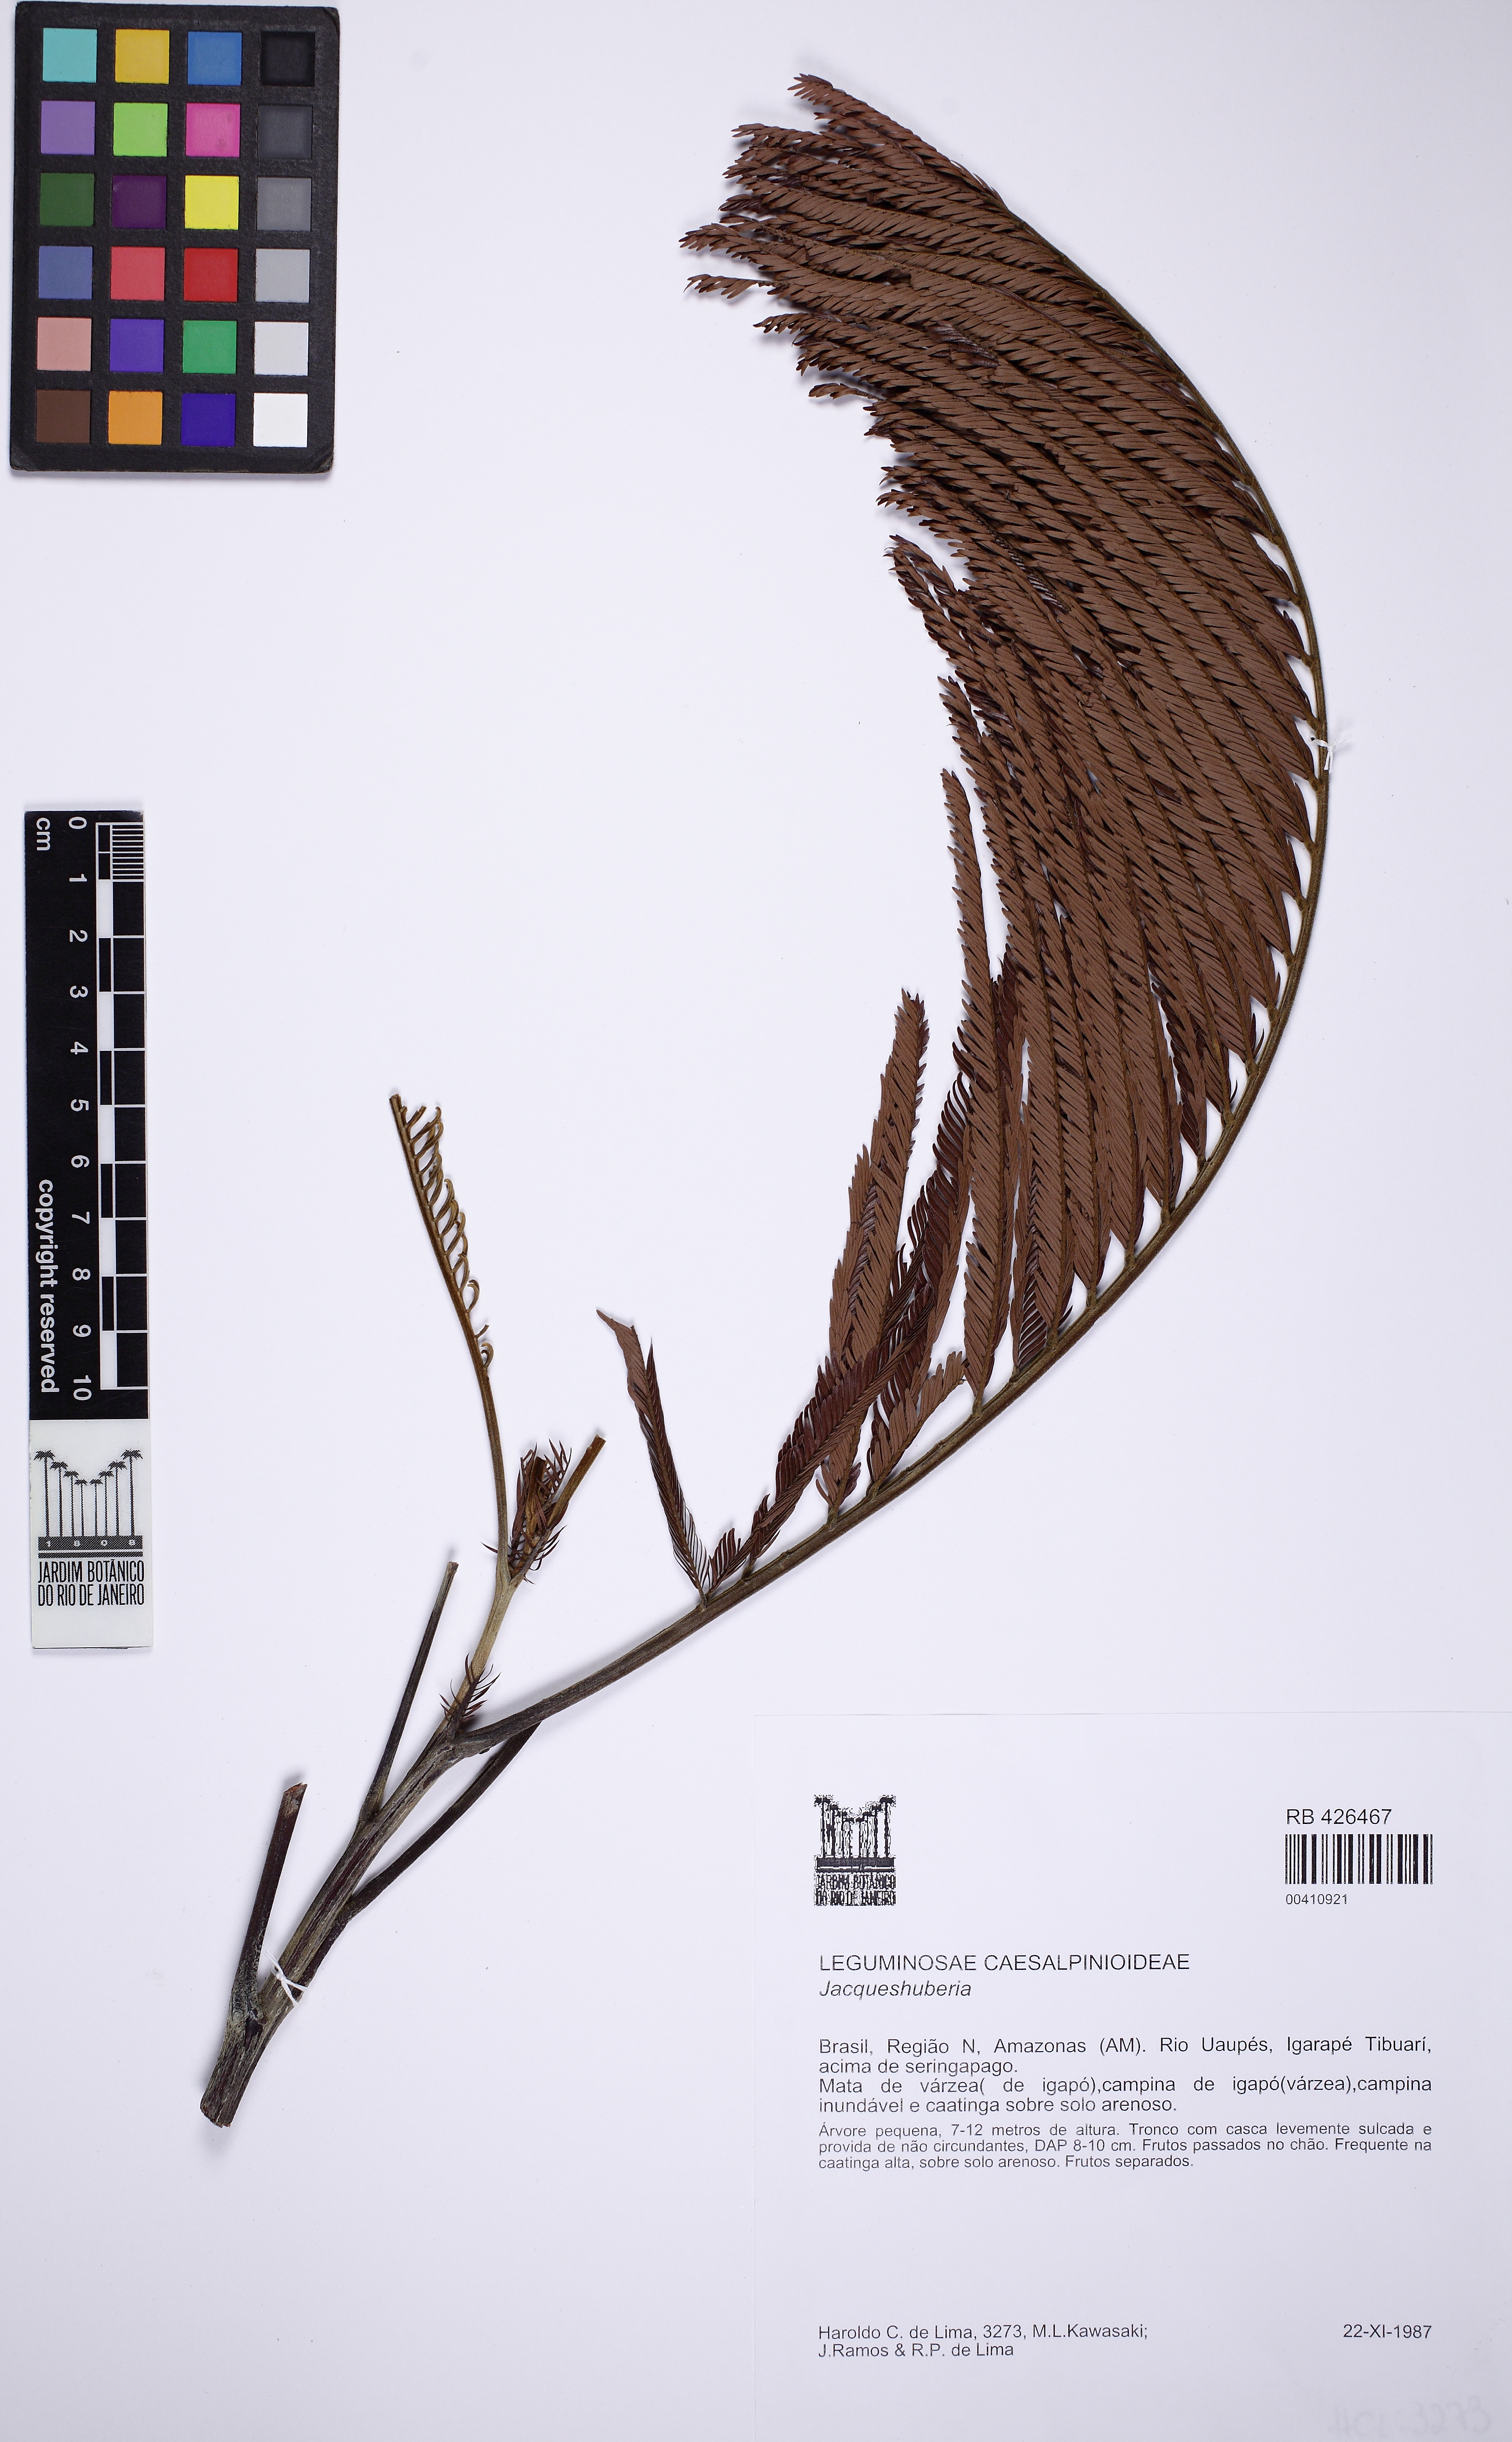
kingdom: Plantae
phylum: Tracheophyta
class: Magnoliopsida
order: Fabales
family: Fabaceae
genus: Jacqueshuberia
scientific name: Jacqueshuberia purpurea
